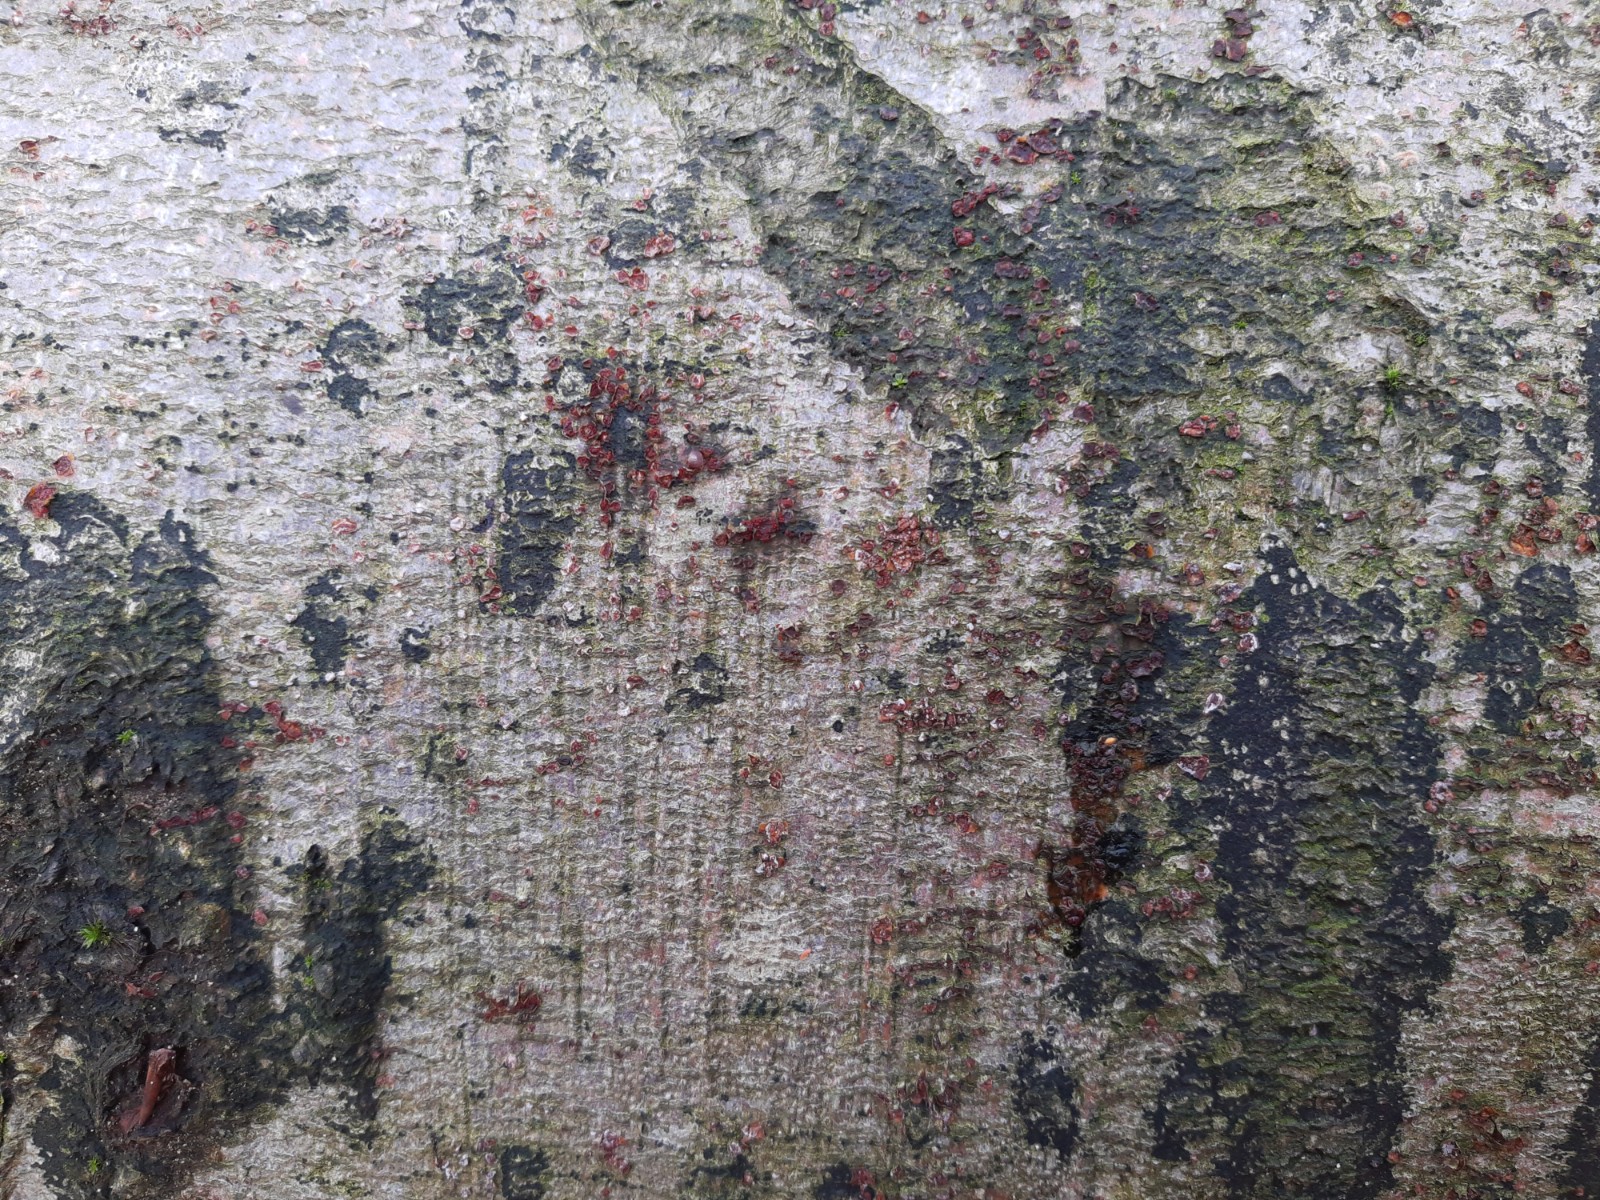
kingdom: Fungi
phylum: Ascomycota
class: Sordariomycetes
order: Hypocreales
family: Nectriaceae
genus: Neonectria
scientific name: Neonectria coccinea
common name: bøgebark-cinnobersvamp
